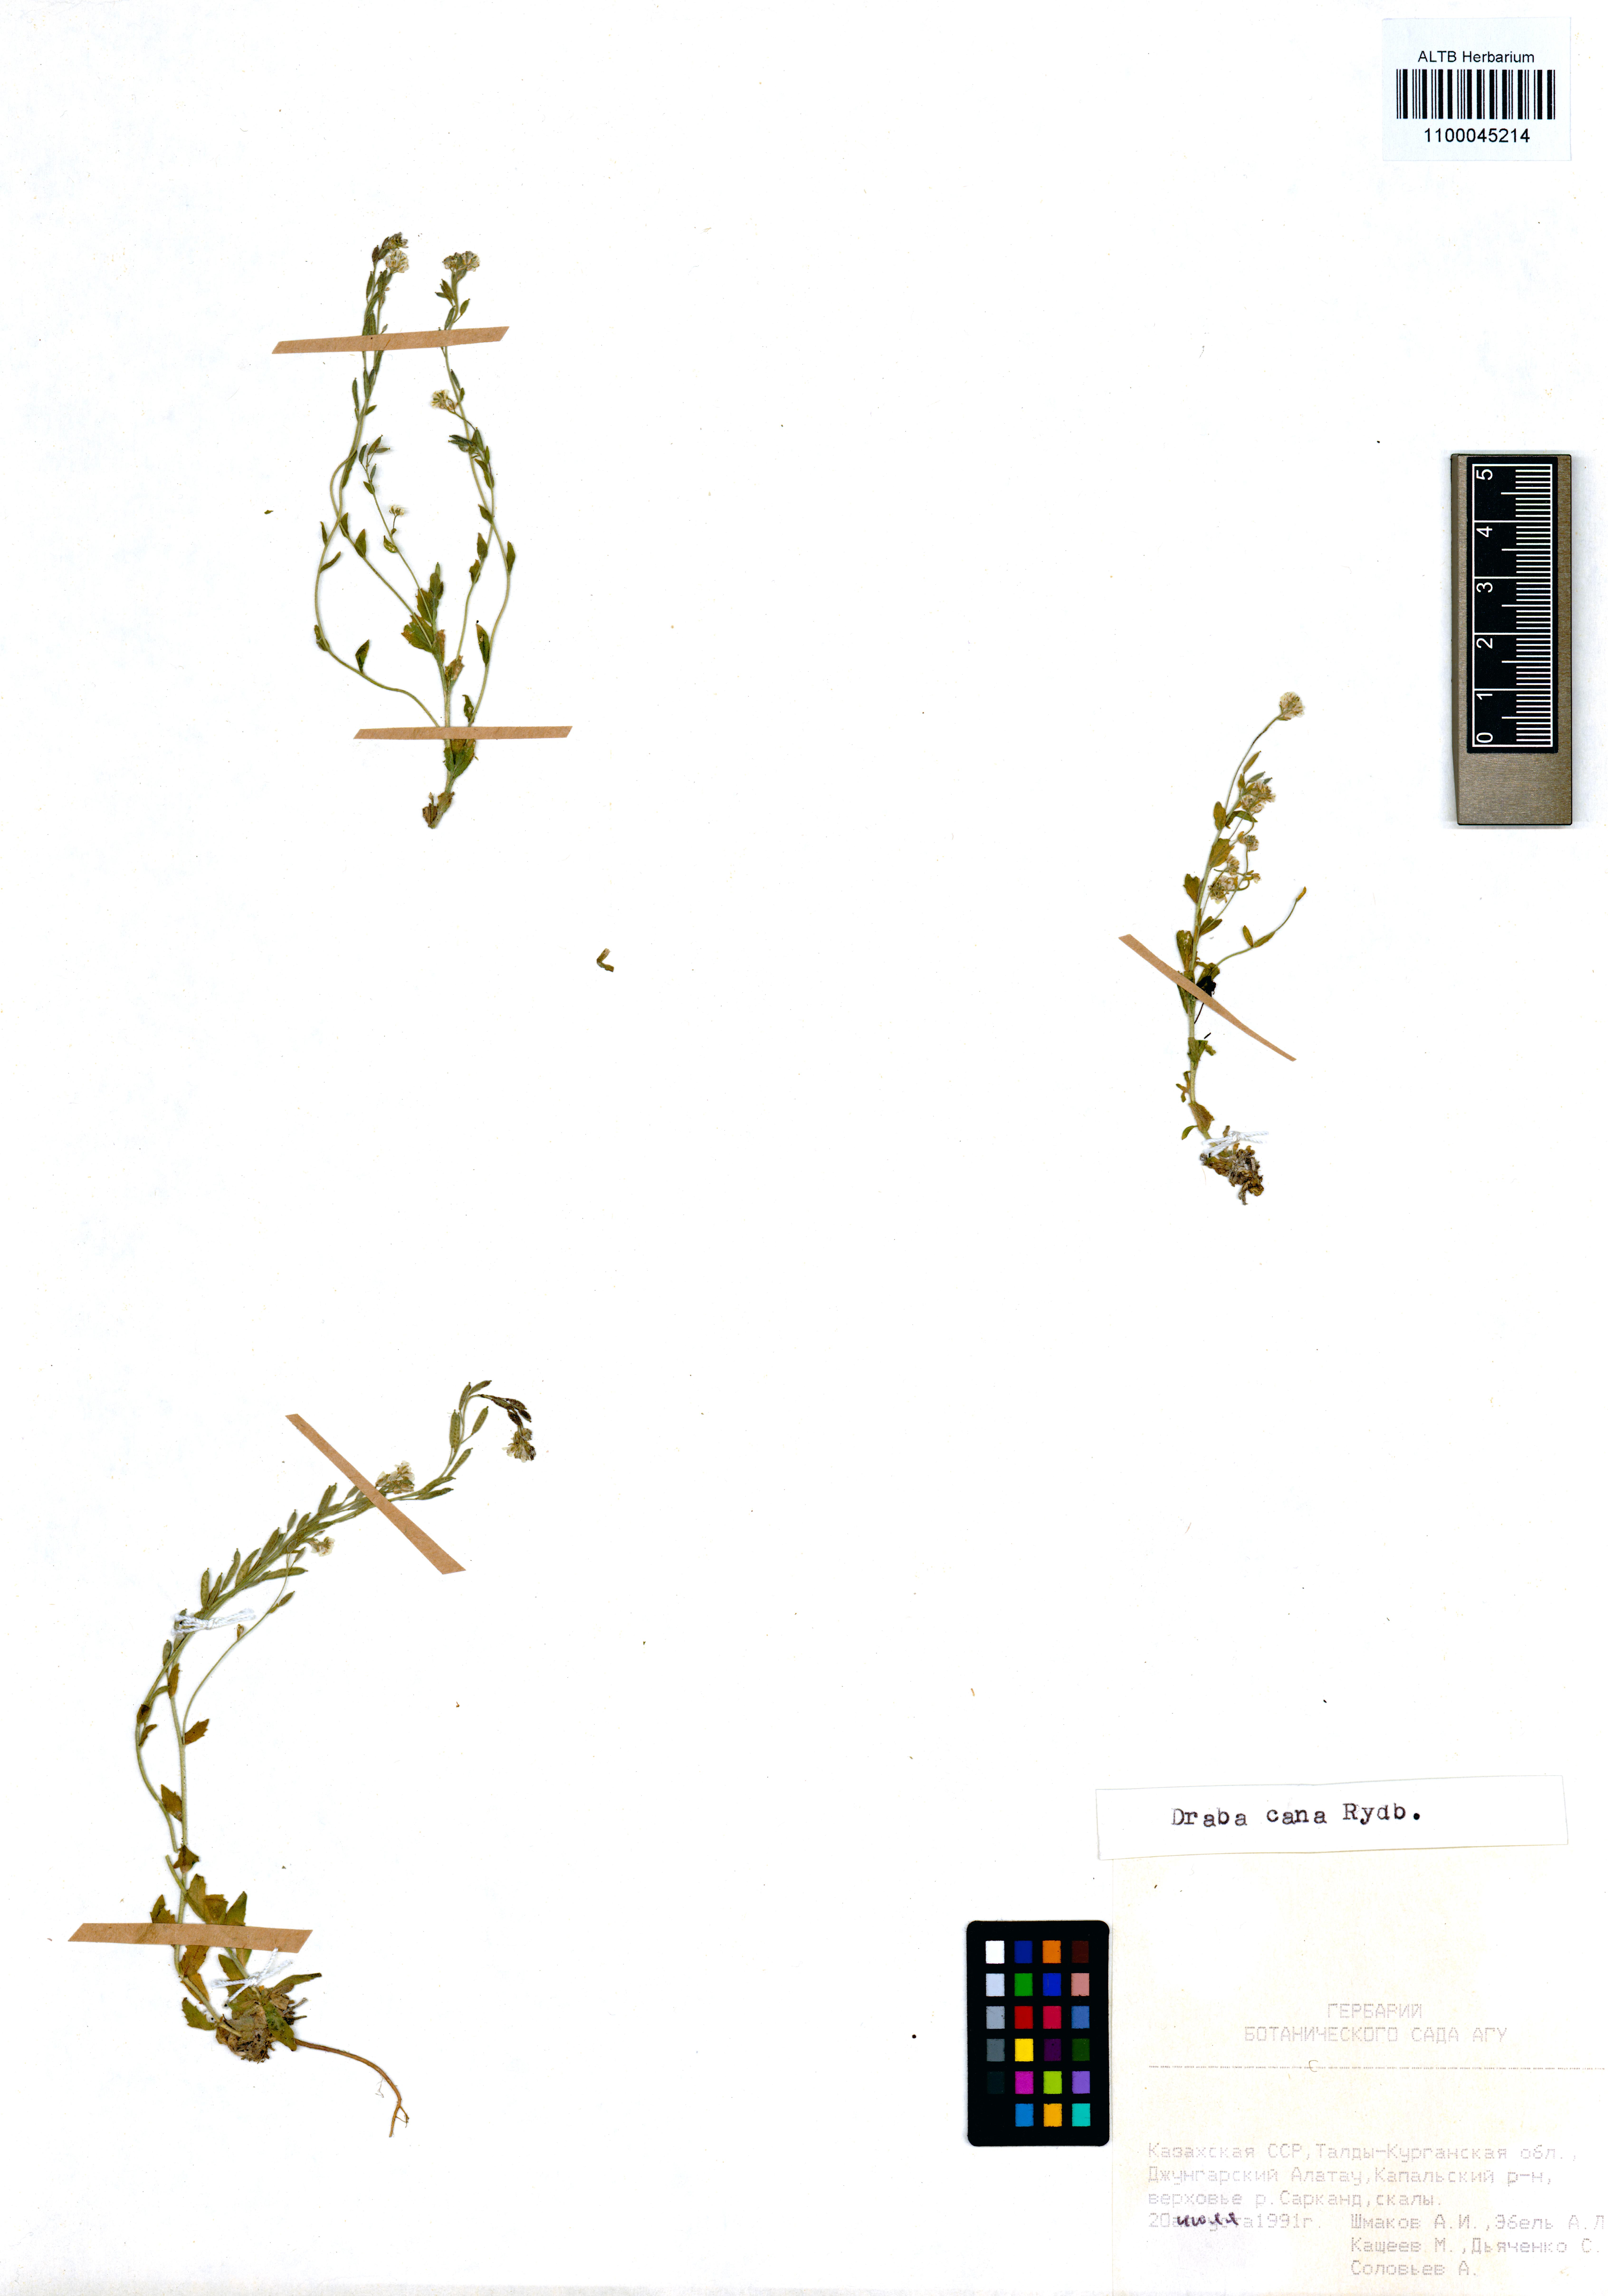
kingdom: Plantae
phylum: Tracheophyta
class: Magnoliopsida
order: Brassicales
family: Brassicaceae
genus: Draba
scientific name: Draba cana
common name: Hoary draba
